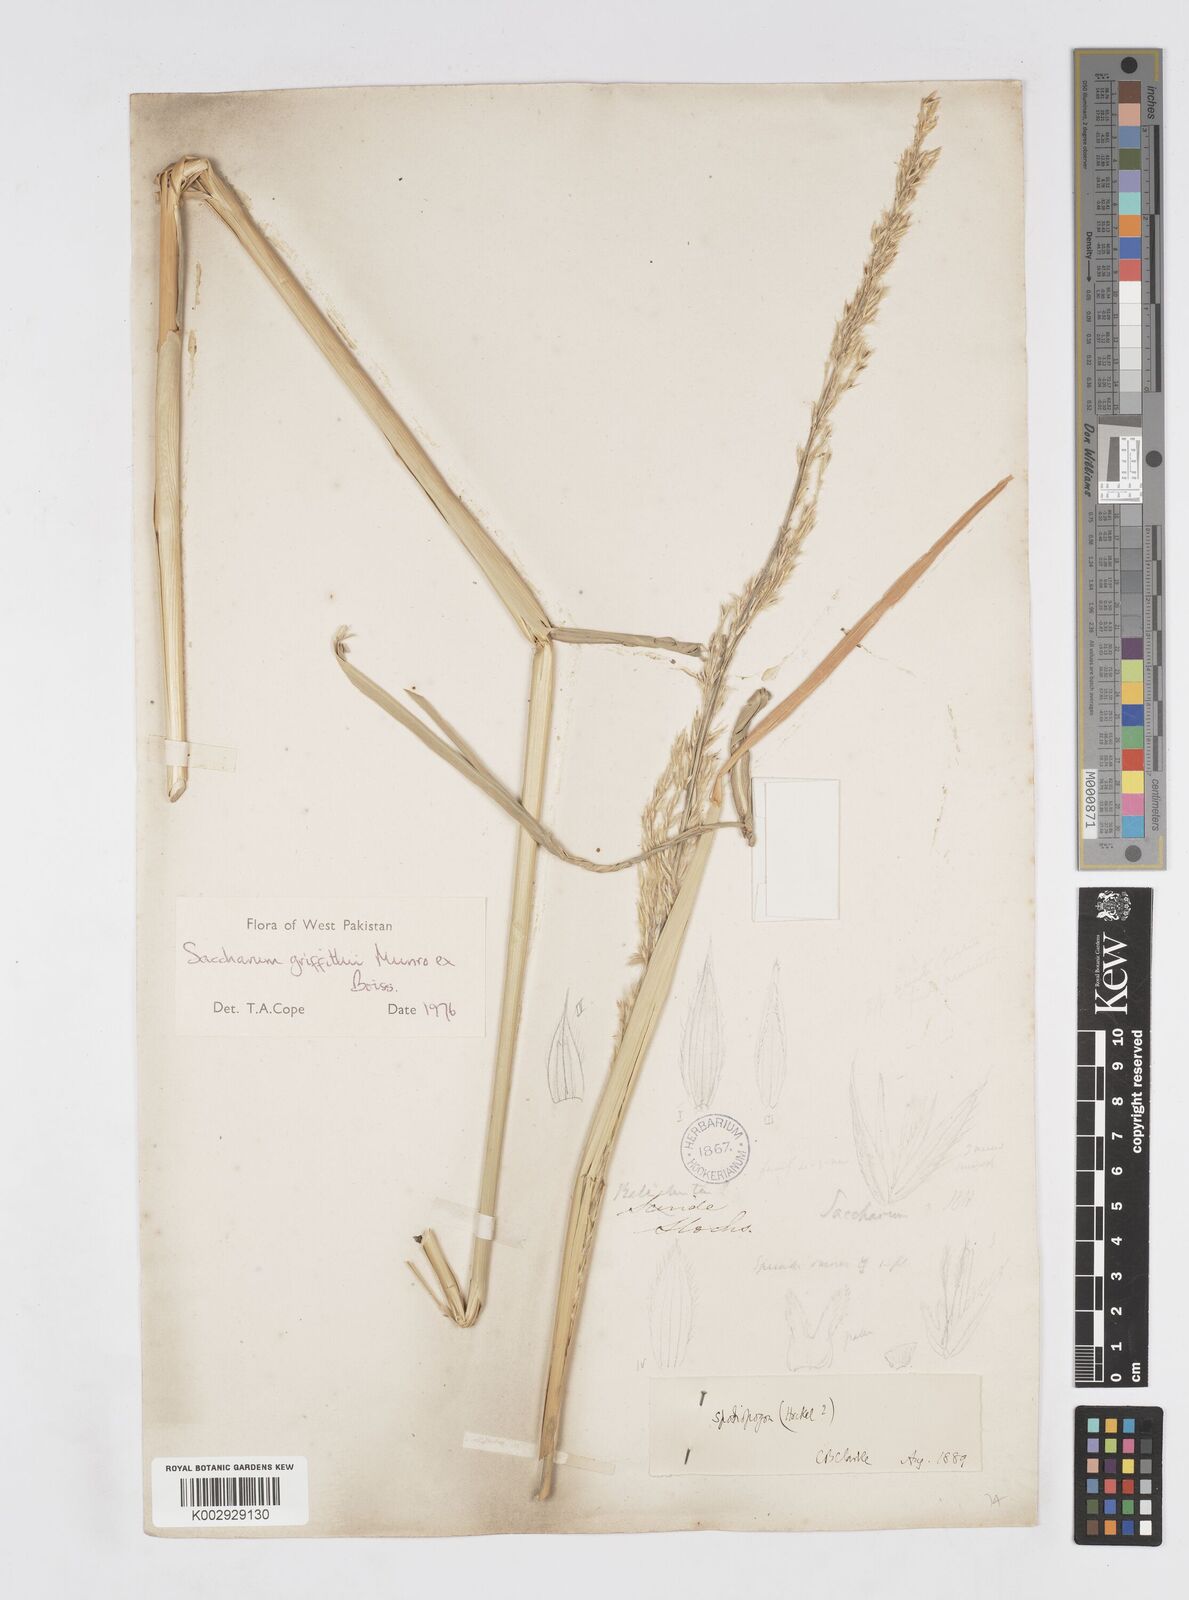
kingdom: Plantae
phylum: Tracheophyta
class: Liliopsida
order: Poales
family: Poaceae
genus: Saccharum
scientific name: Saccharum griffithii
